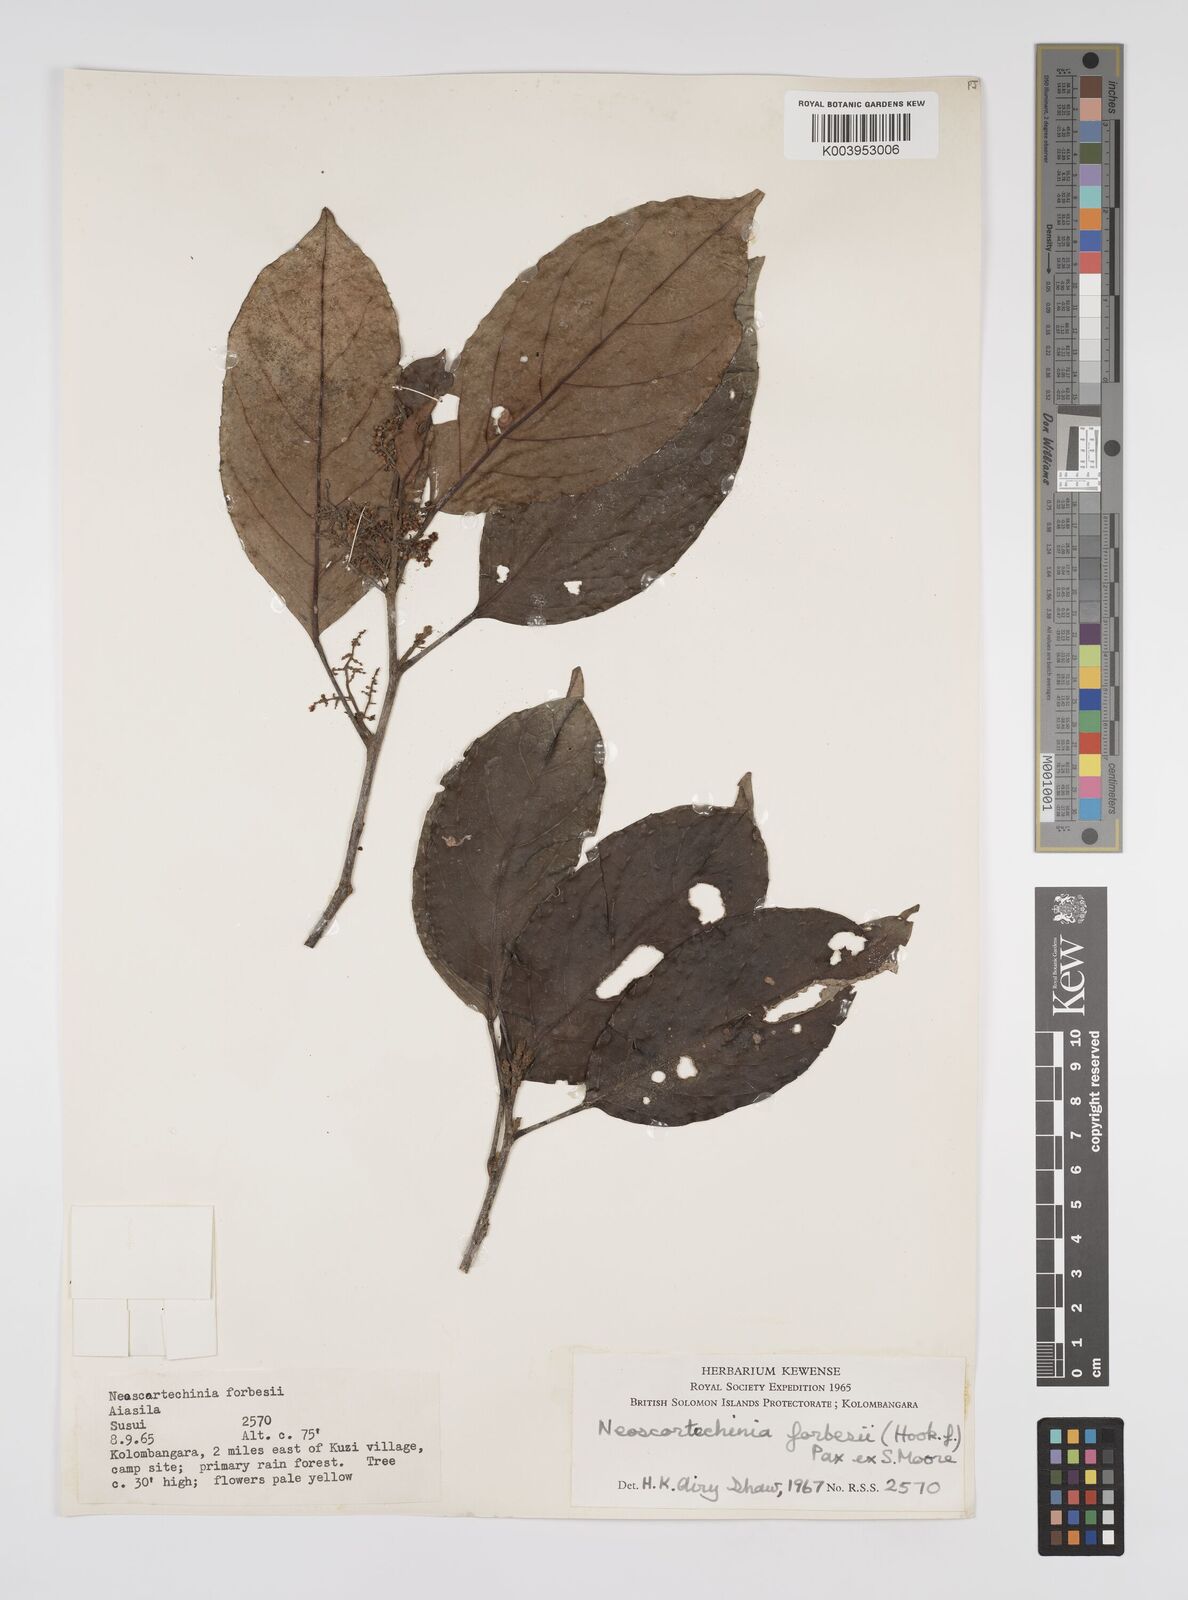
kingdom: Plantae
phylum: Tracheophyta
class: Magnoliopsida
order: Malpighiales
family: Euphorbiaceae
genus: Neoscortechinia
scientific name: Neoscortechinia forbesii
